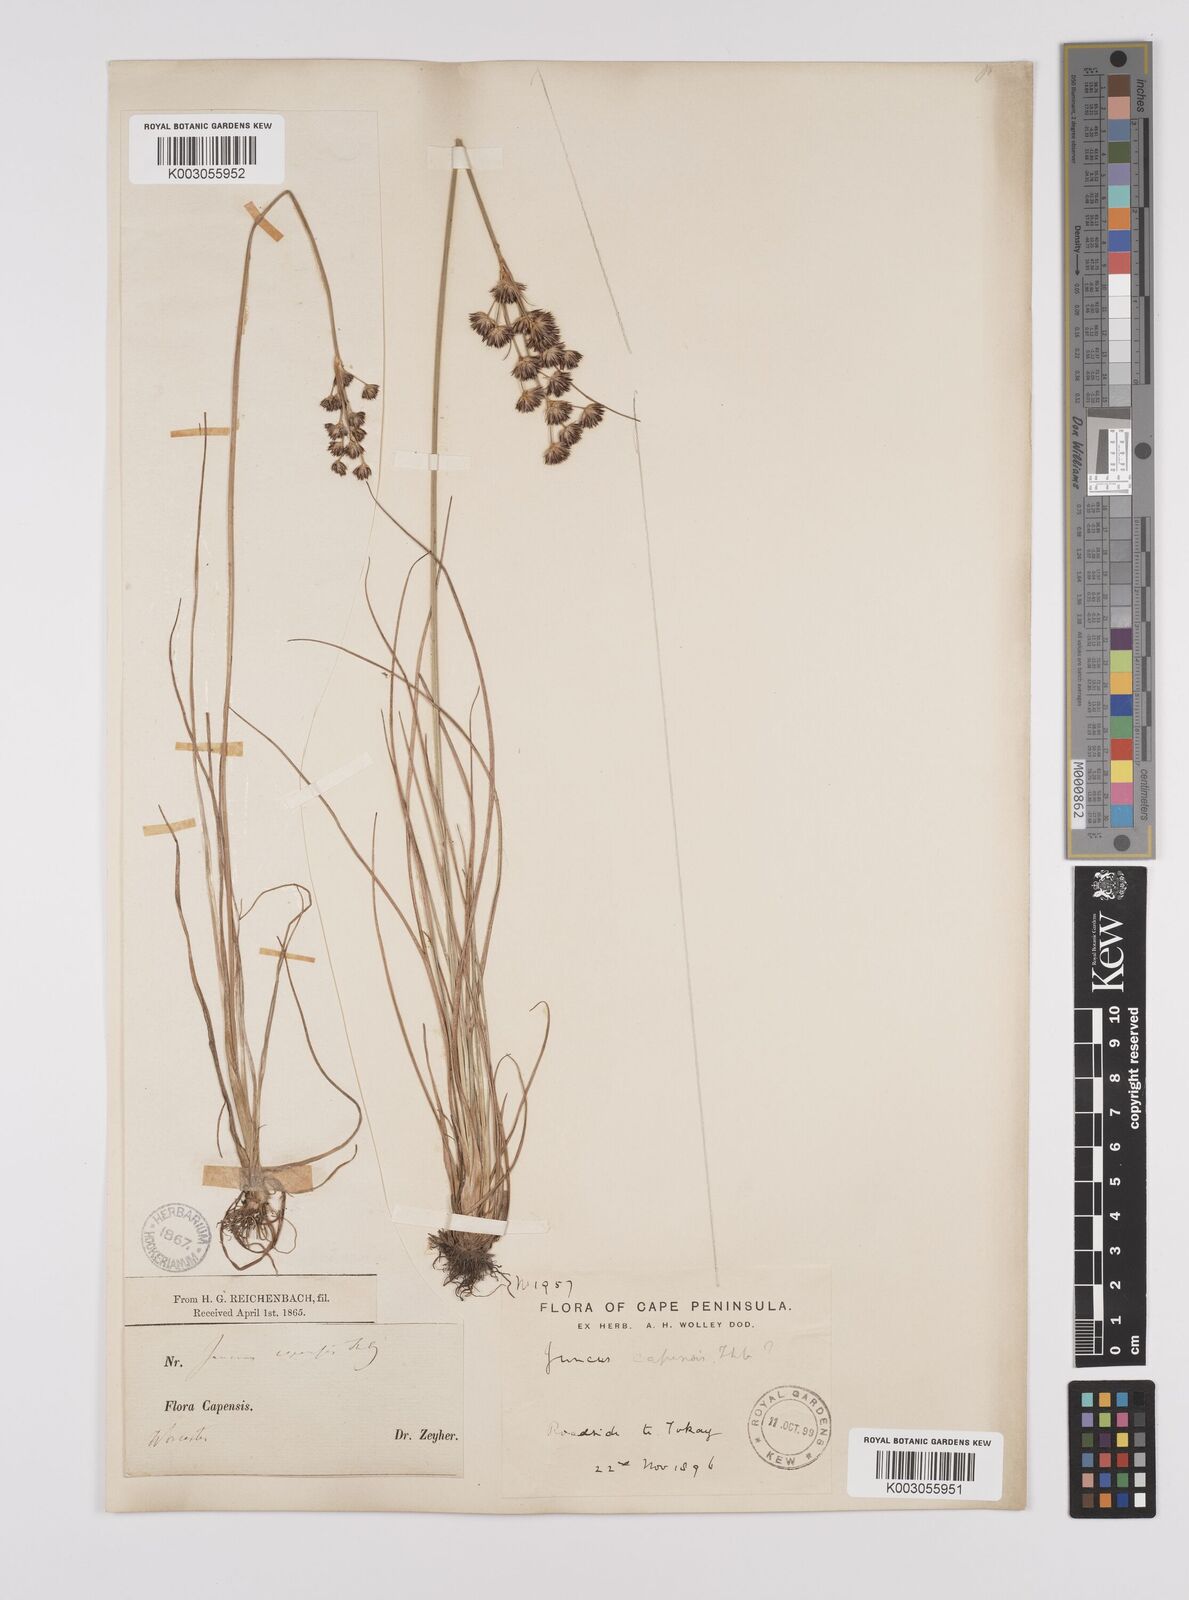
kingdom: Plantae
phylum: Tracheophyta
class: Liliopsida
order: Poales
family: Juncaceae
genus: Juncus
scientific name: Juncus capensis
